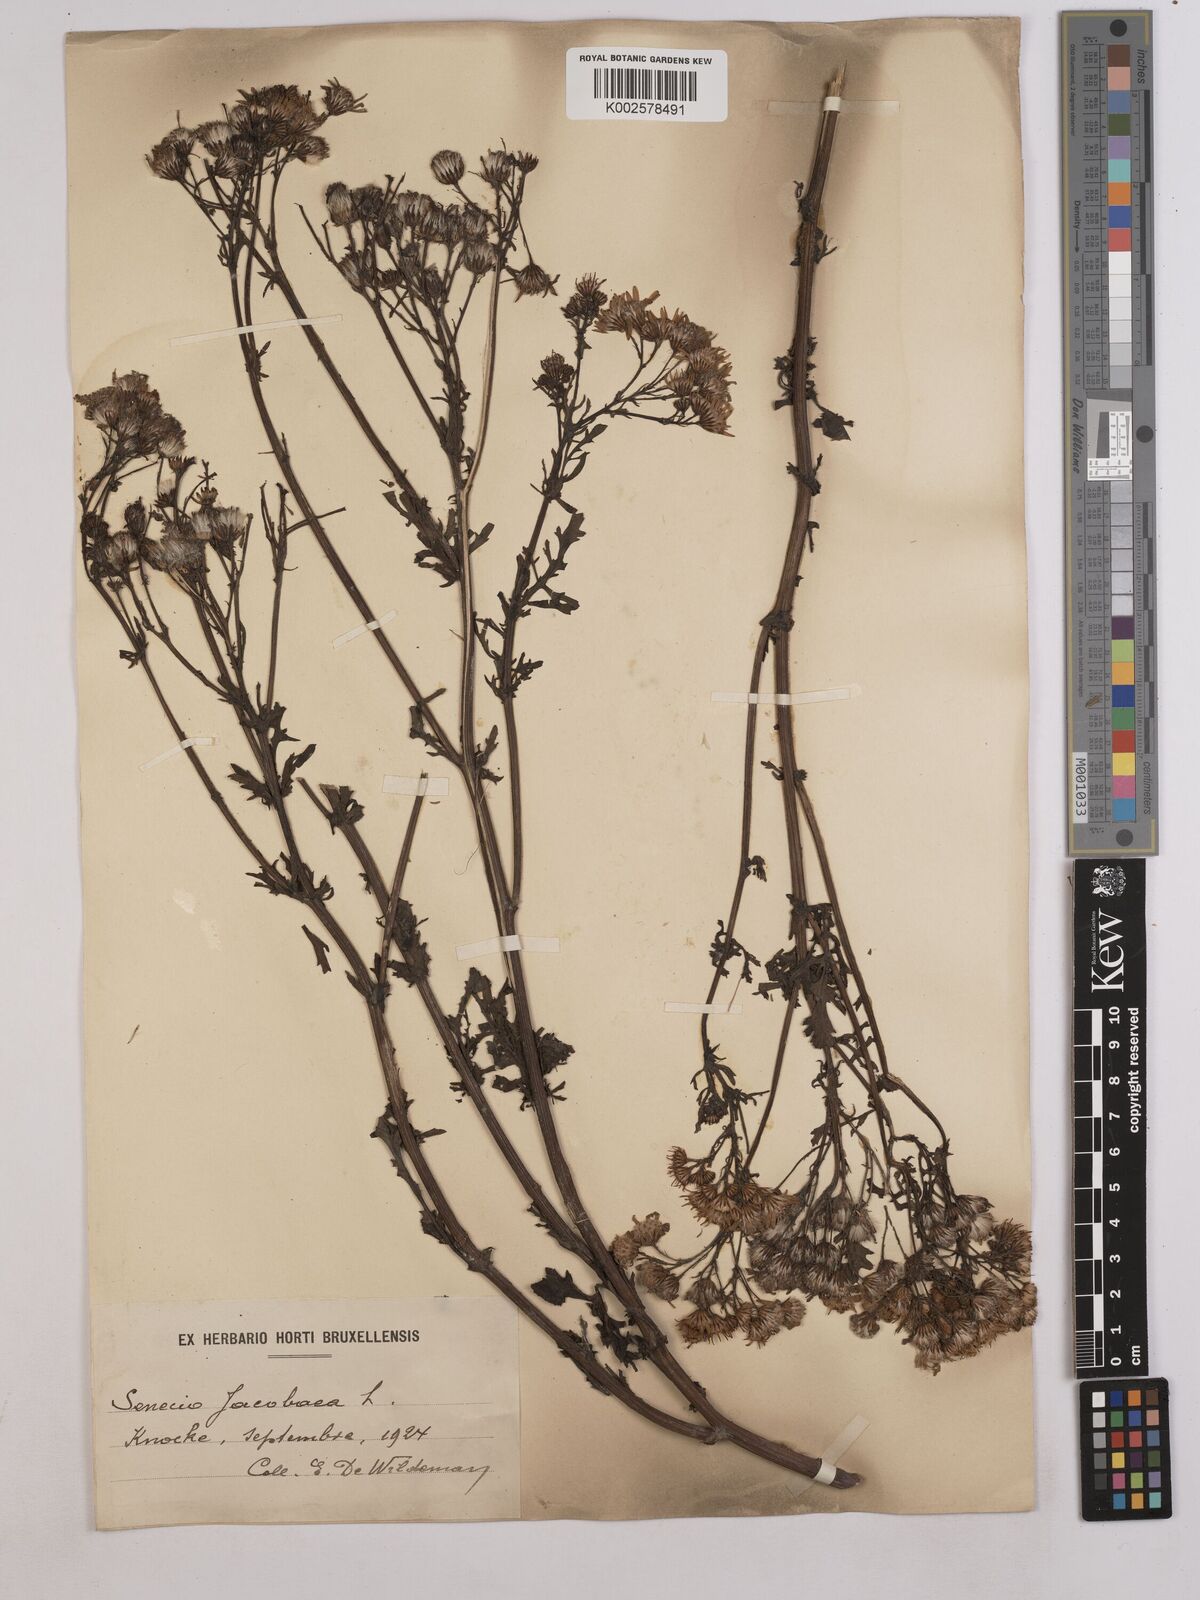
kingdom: Plantae
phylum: Tracheophyta
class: Magnoliopsida
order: Asterales
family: Asteraceae
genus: Jacobaea
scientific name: Jacobaea vulgaris
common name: Stinking willie
